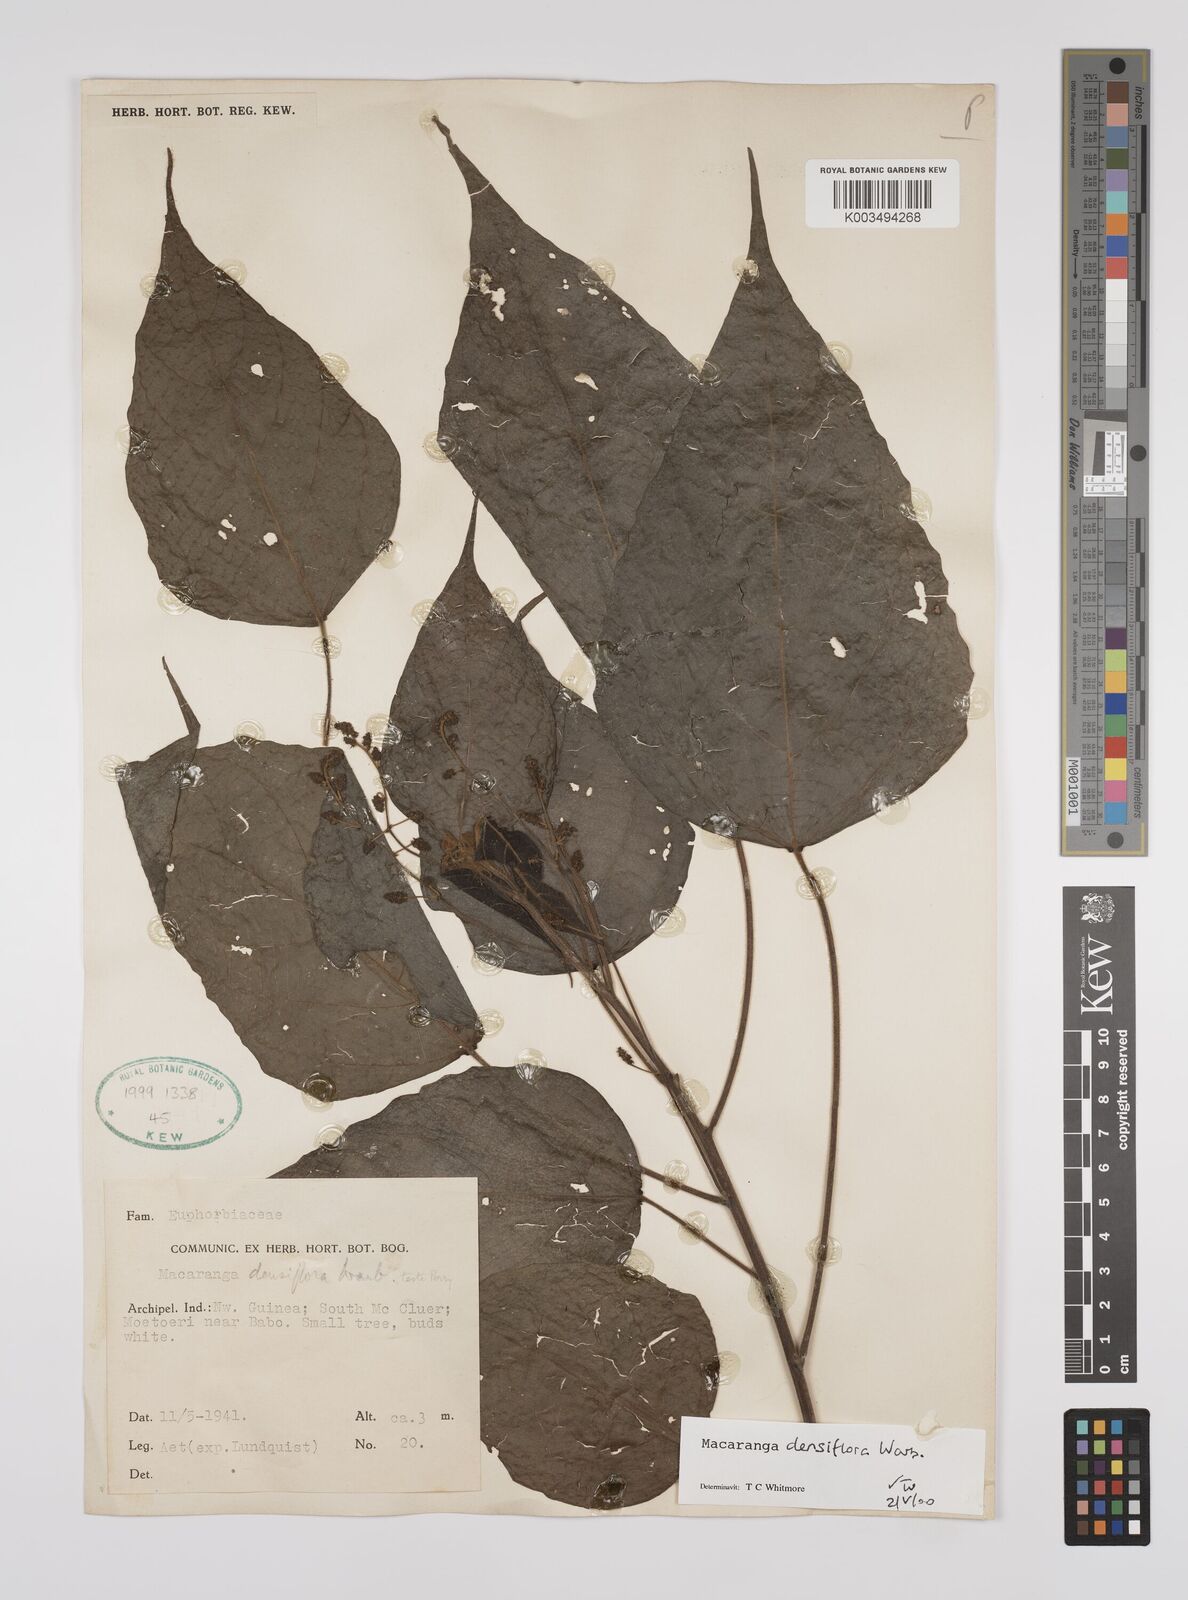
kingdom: Plantae
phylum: Tracheophyta
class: Magnoliopsida
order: Malpighiales
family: Euphorbiaceae
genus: Macaranga
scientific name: Macaranga densiflora
